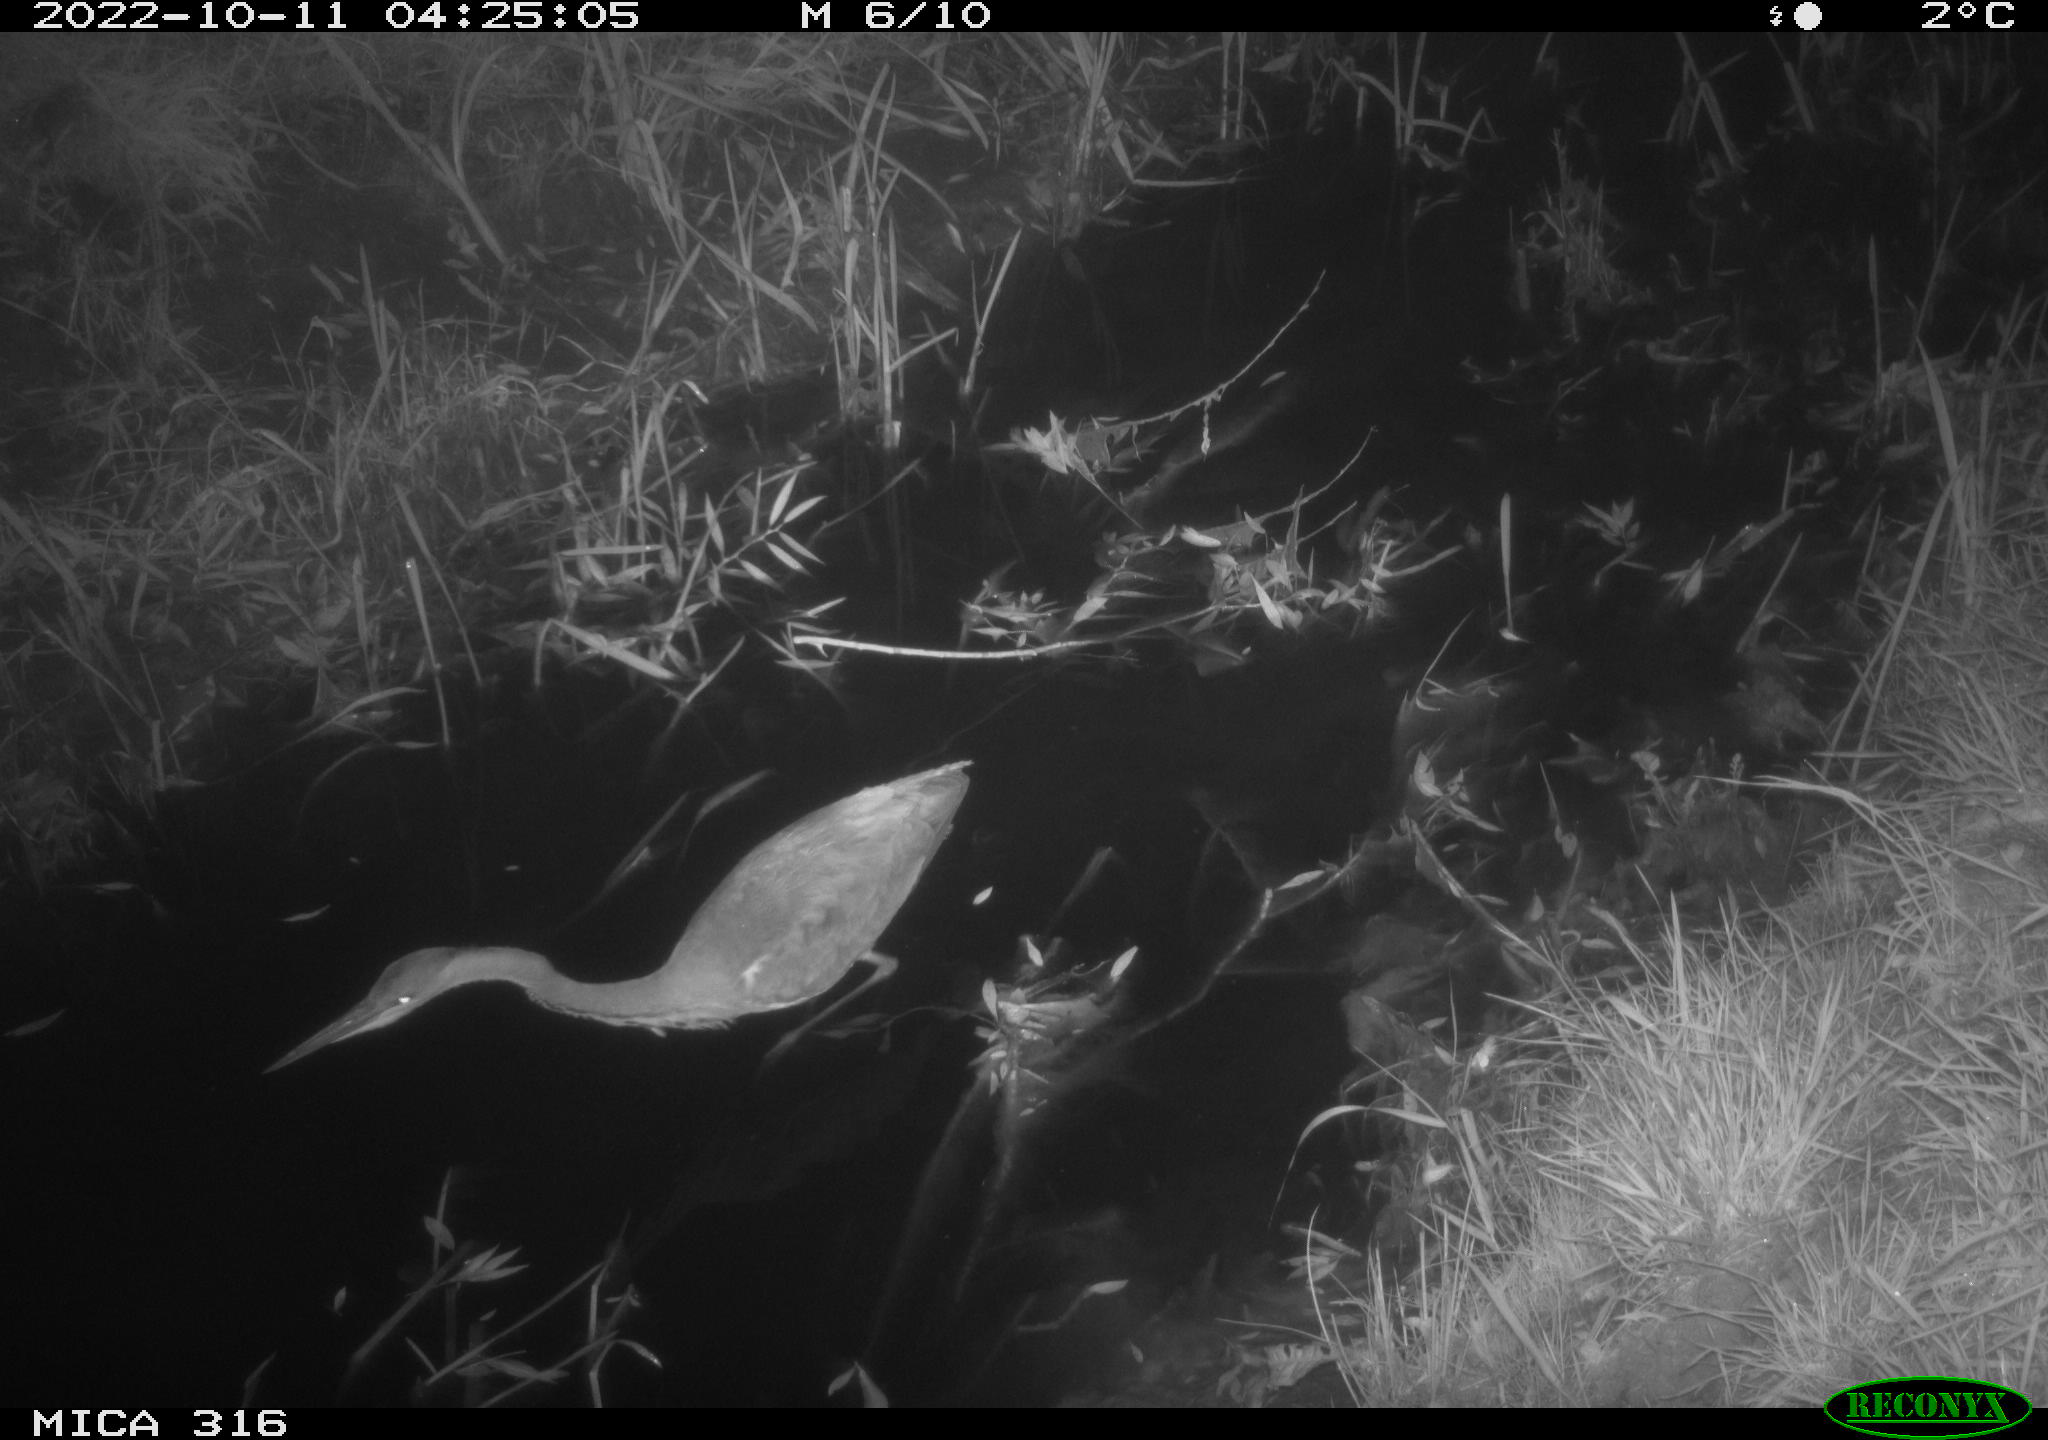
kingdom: Animalia
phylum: Chordata
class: Aves
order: Pelecaniformes
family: Ardeidae
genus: Ardea
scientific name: Ardea cinerea
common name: Grey heron
